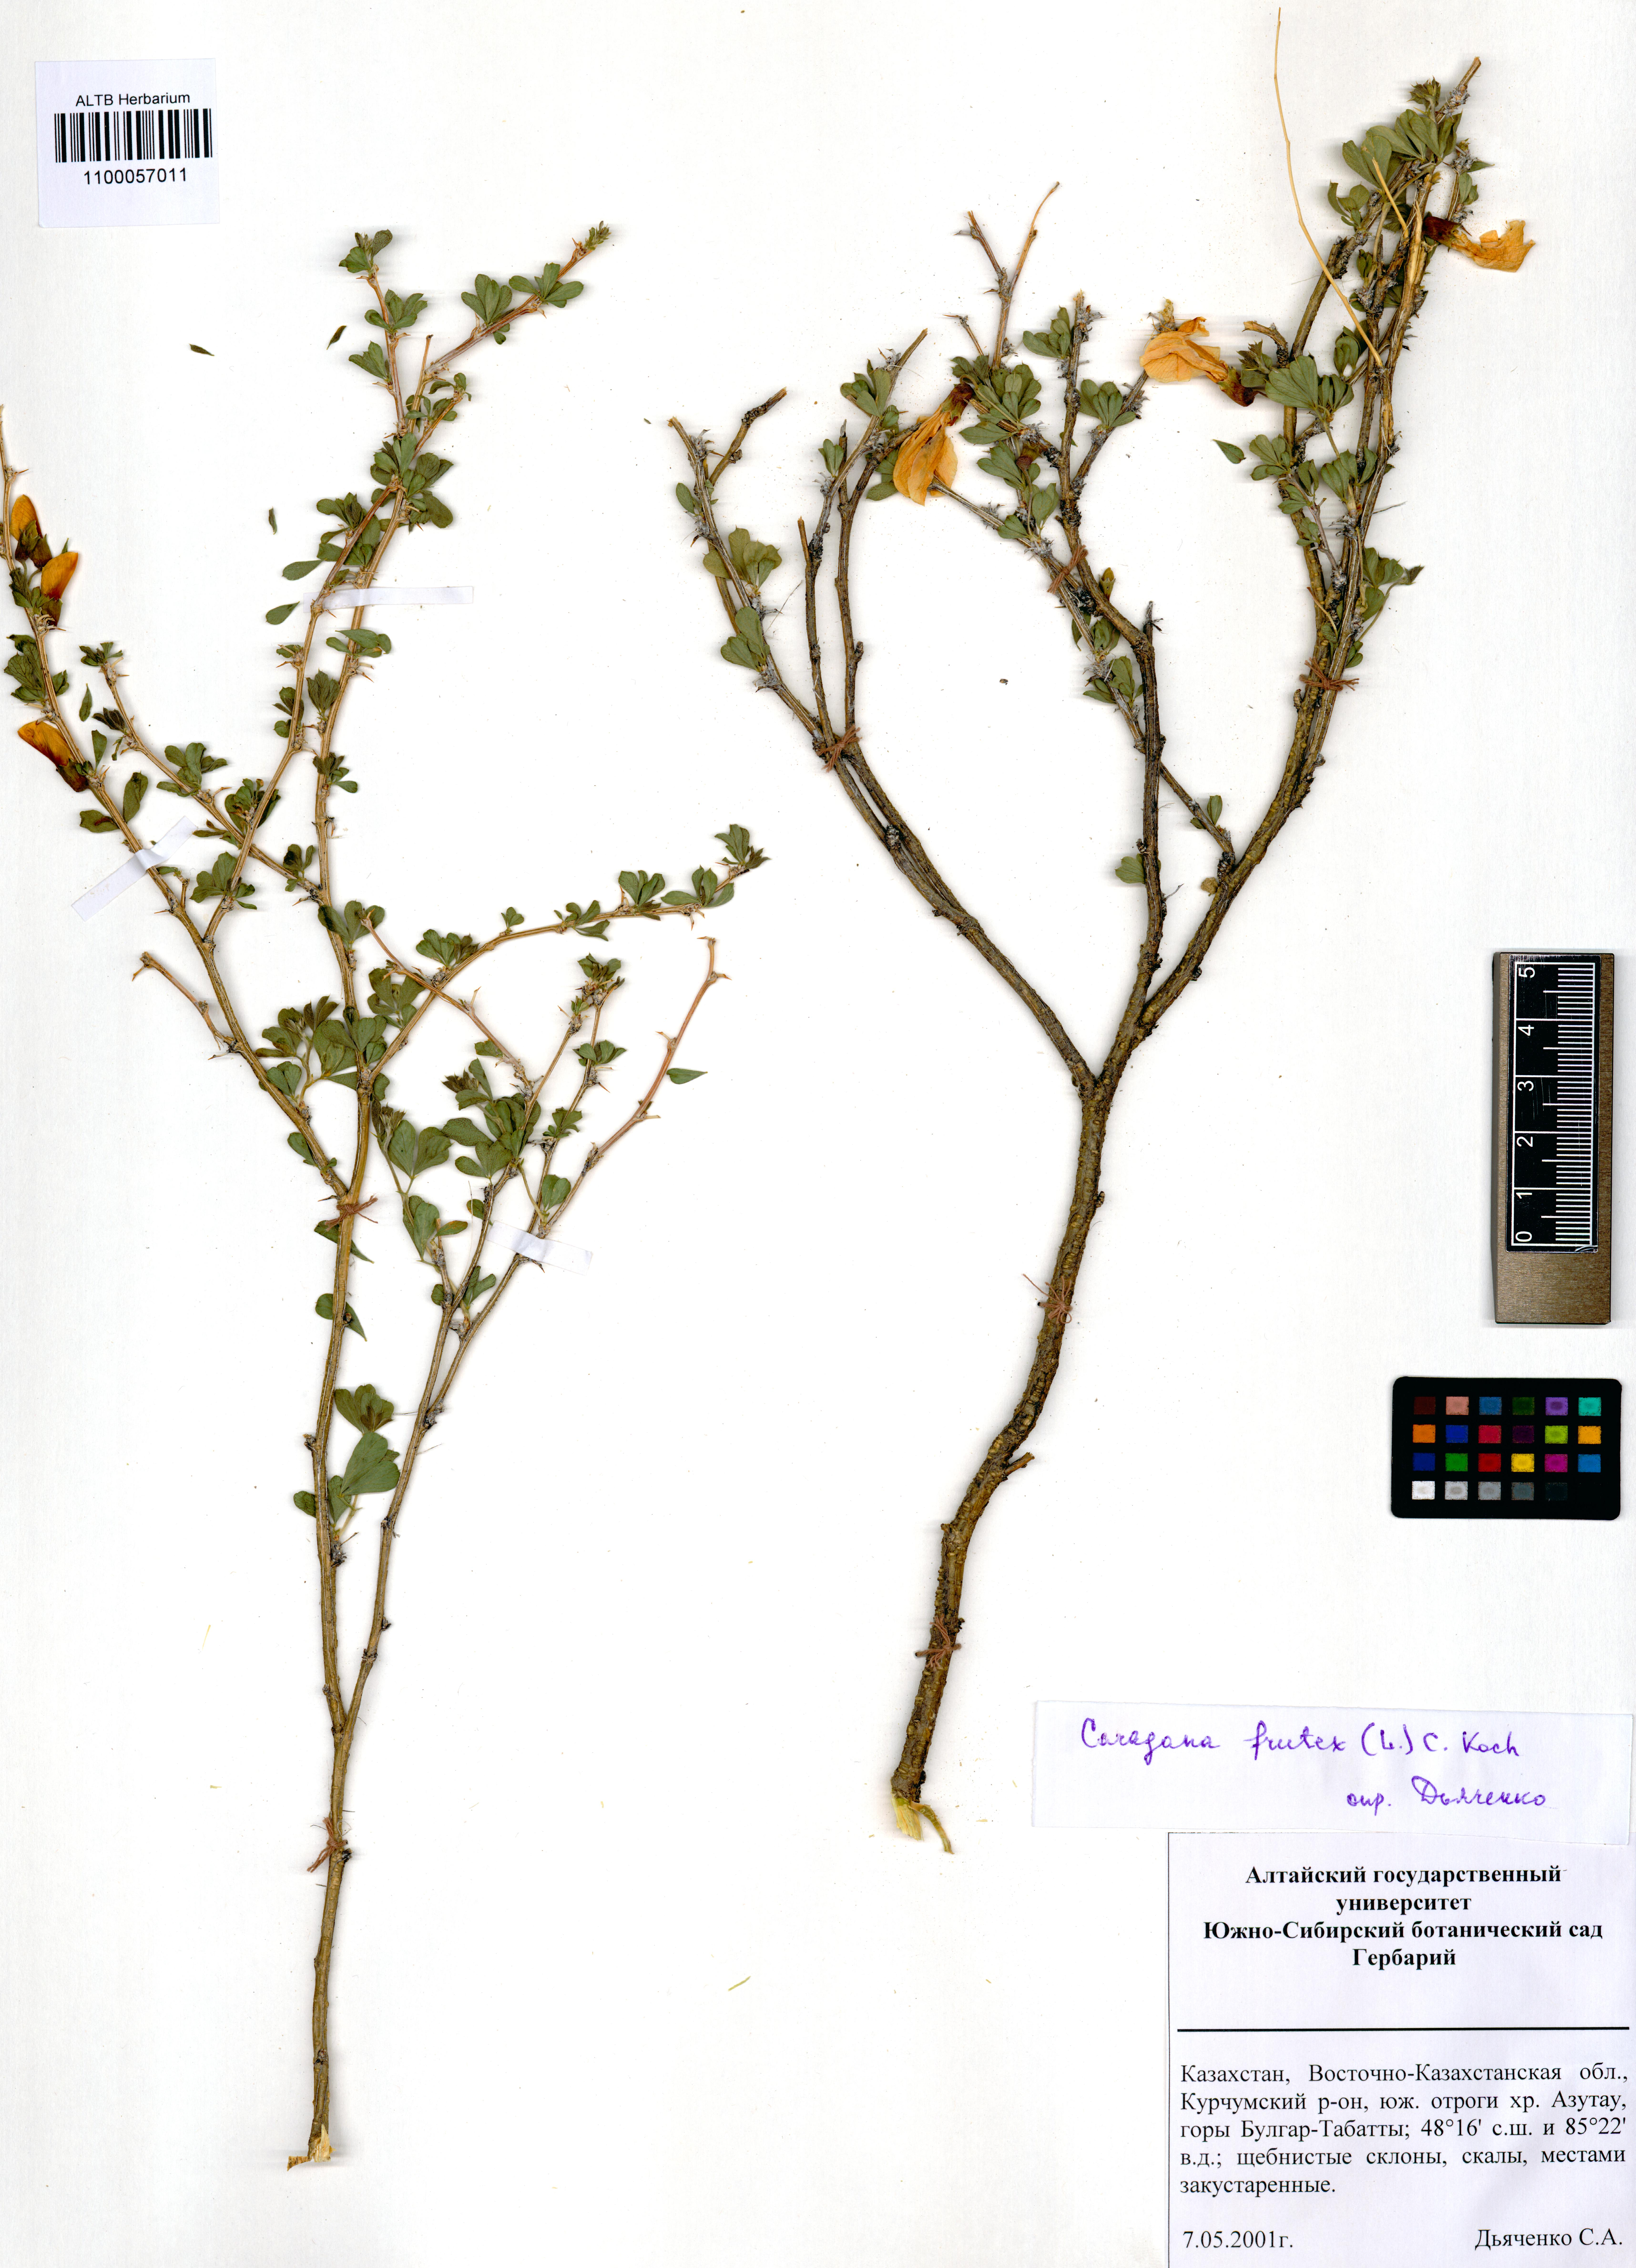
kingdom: Plantae
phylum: Tracheophyta
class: Magnoliopsida
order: Fabales
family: Fabaceae
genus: Caragana
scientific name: Caragana frutex
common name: Russian peashrub
